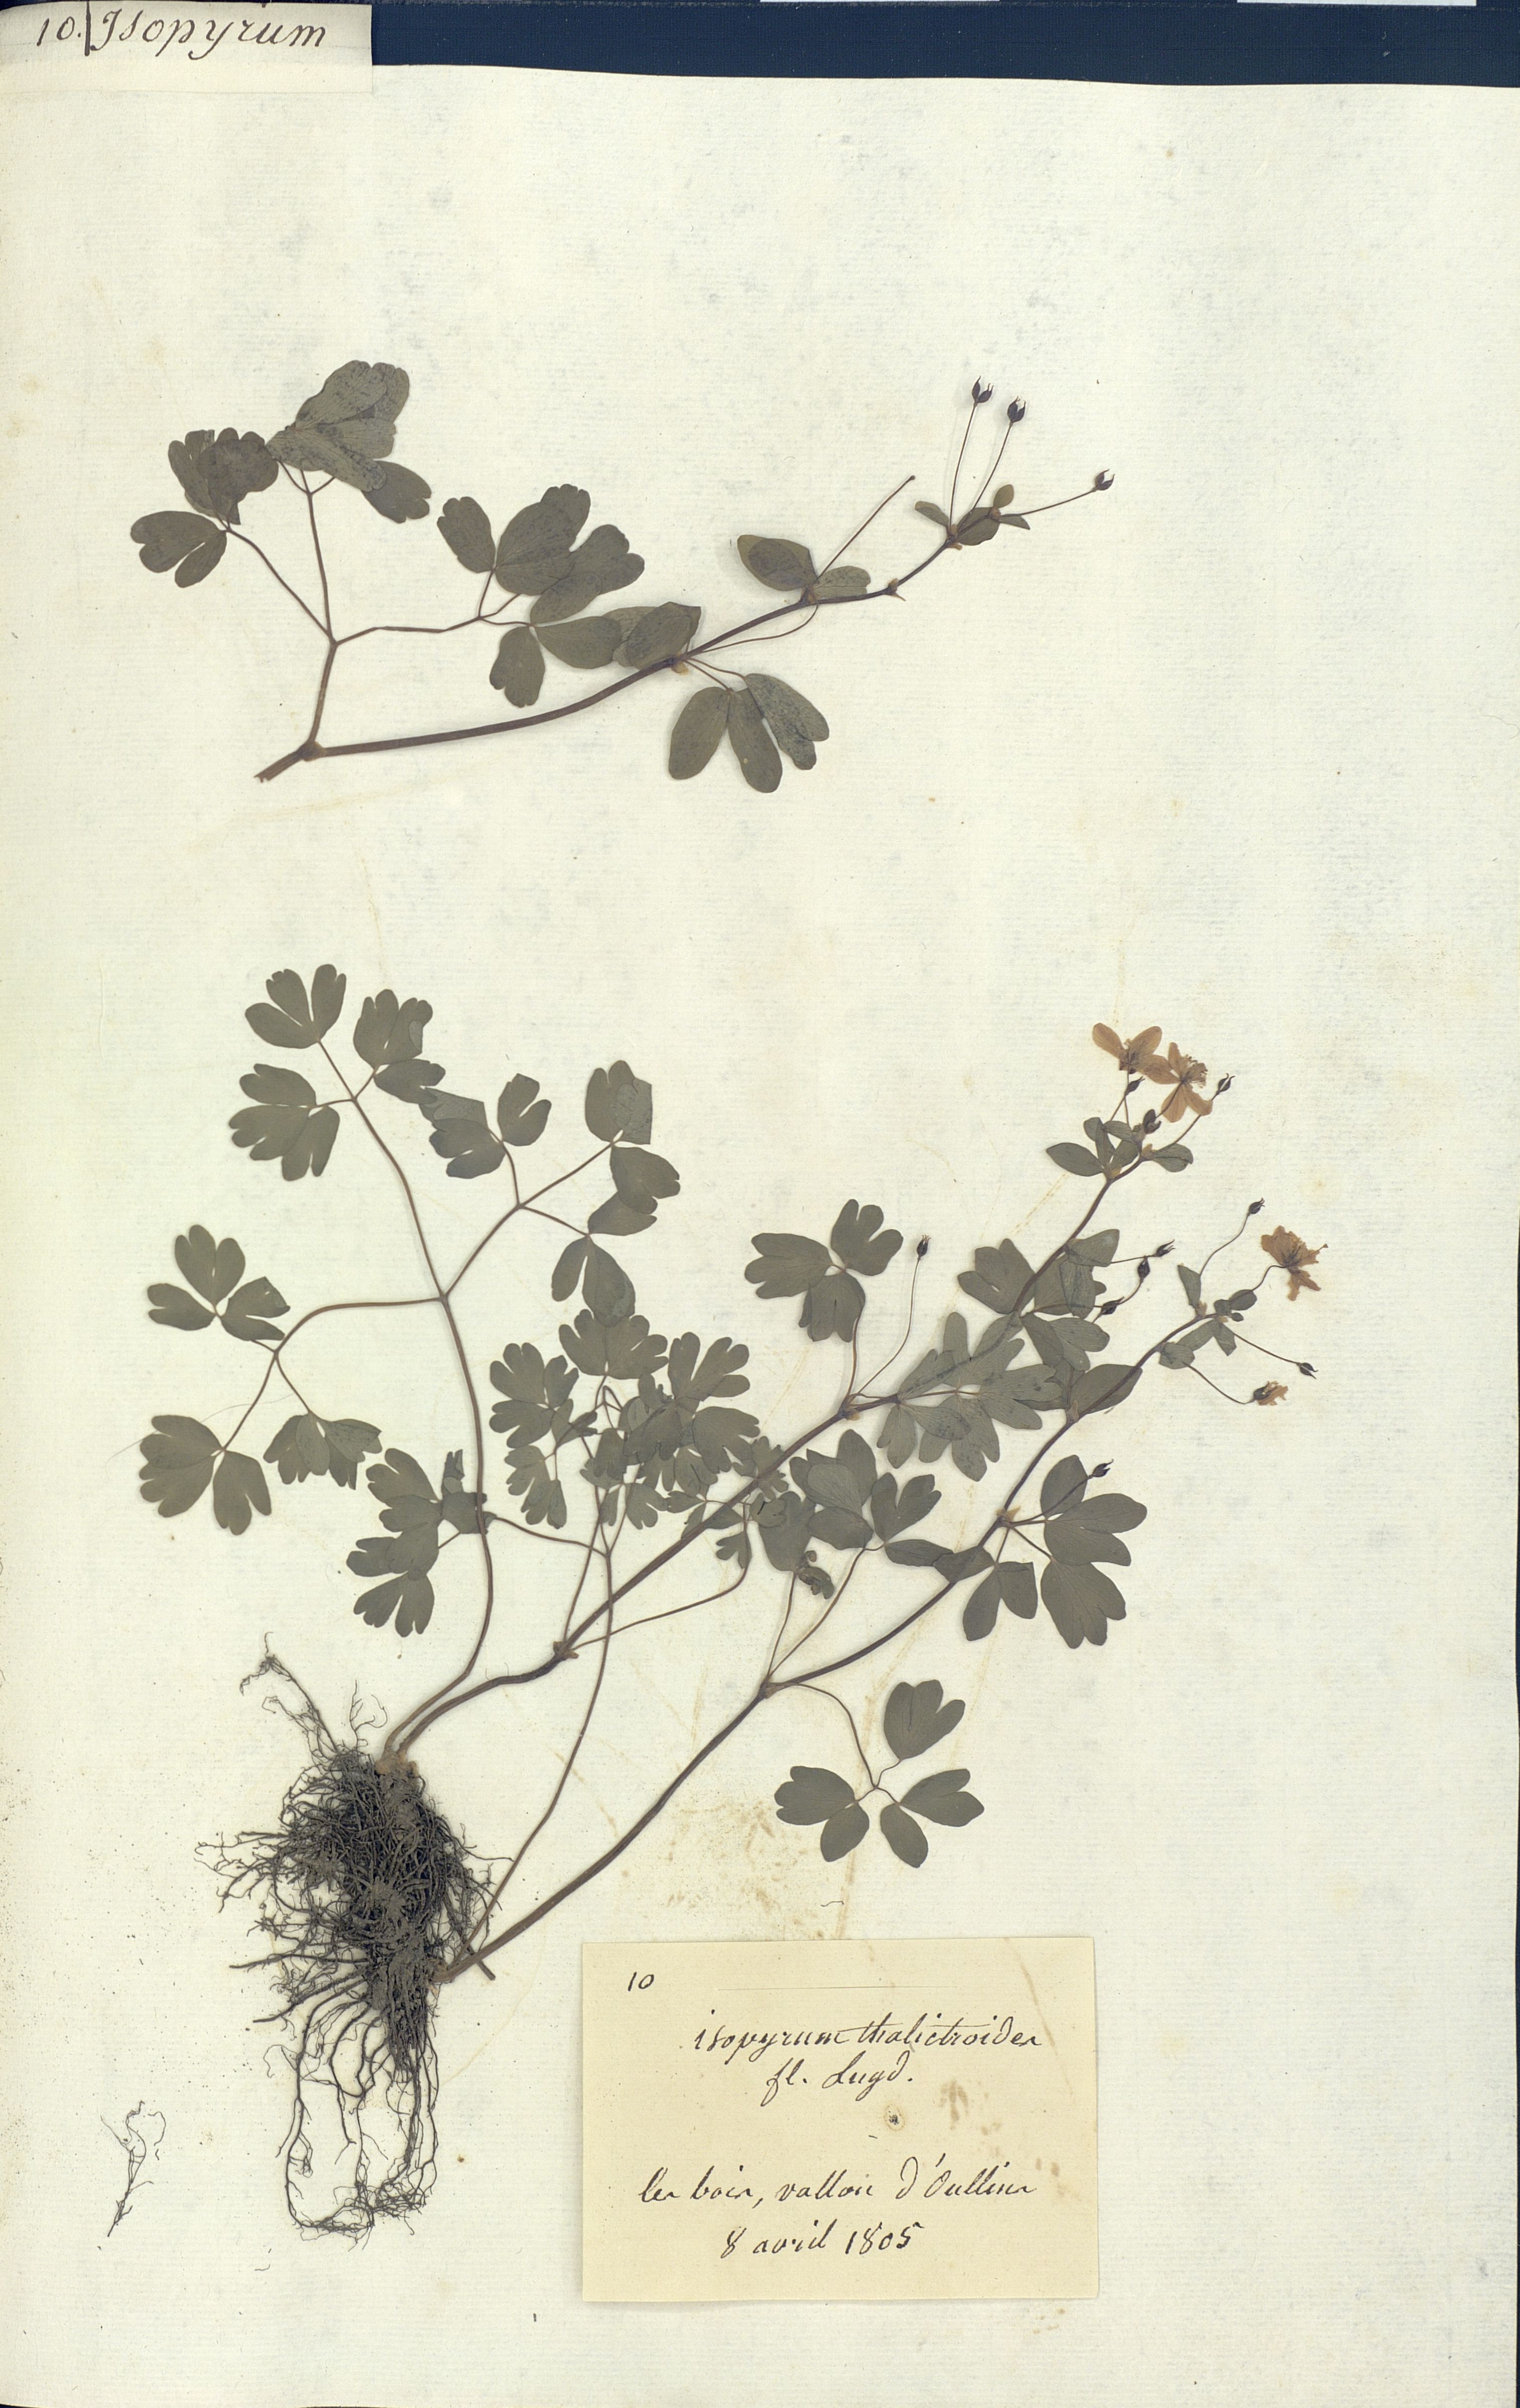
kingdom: Plantae
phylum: Tracheophyta
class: Magnoliopsida
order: Ranunculales
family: Ranunculaceae
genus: Isopyrum
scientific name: Isopyrum thalictroides
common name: Isopyrum
